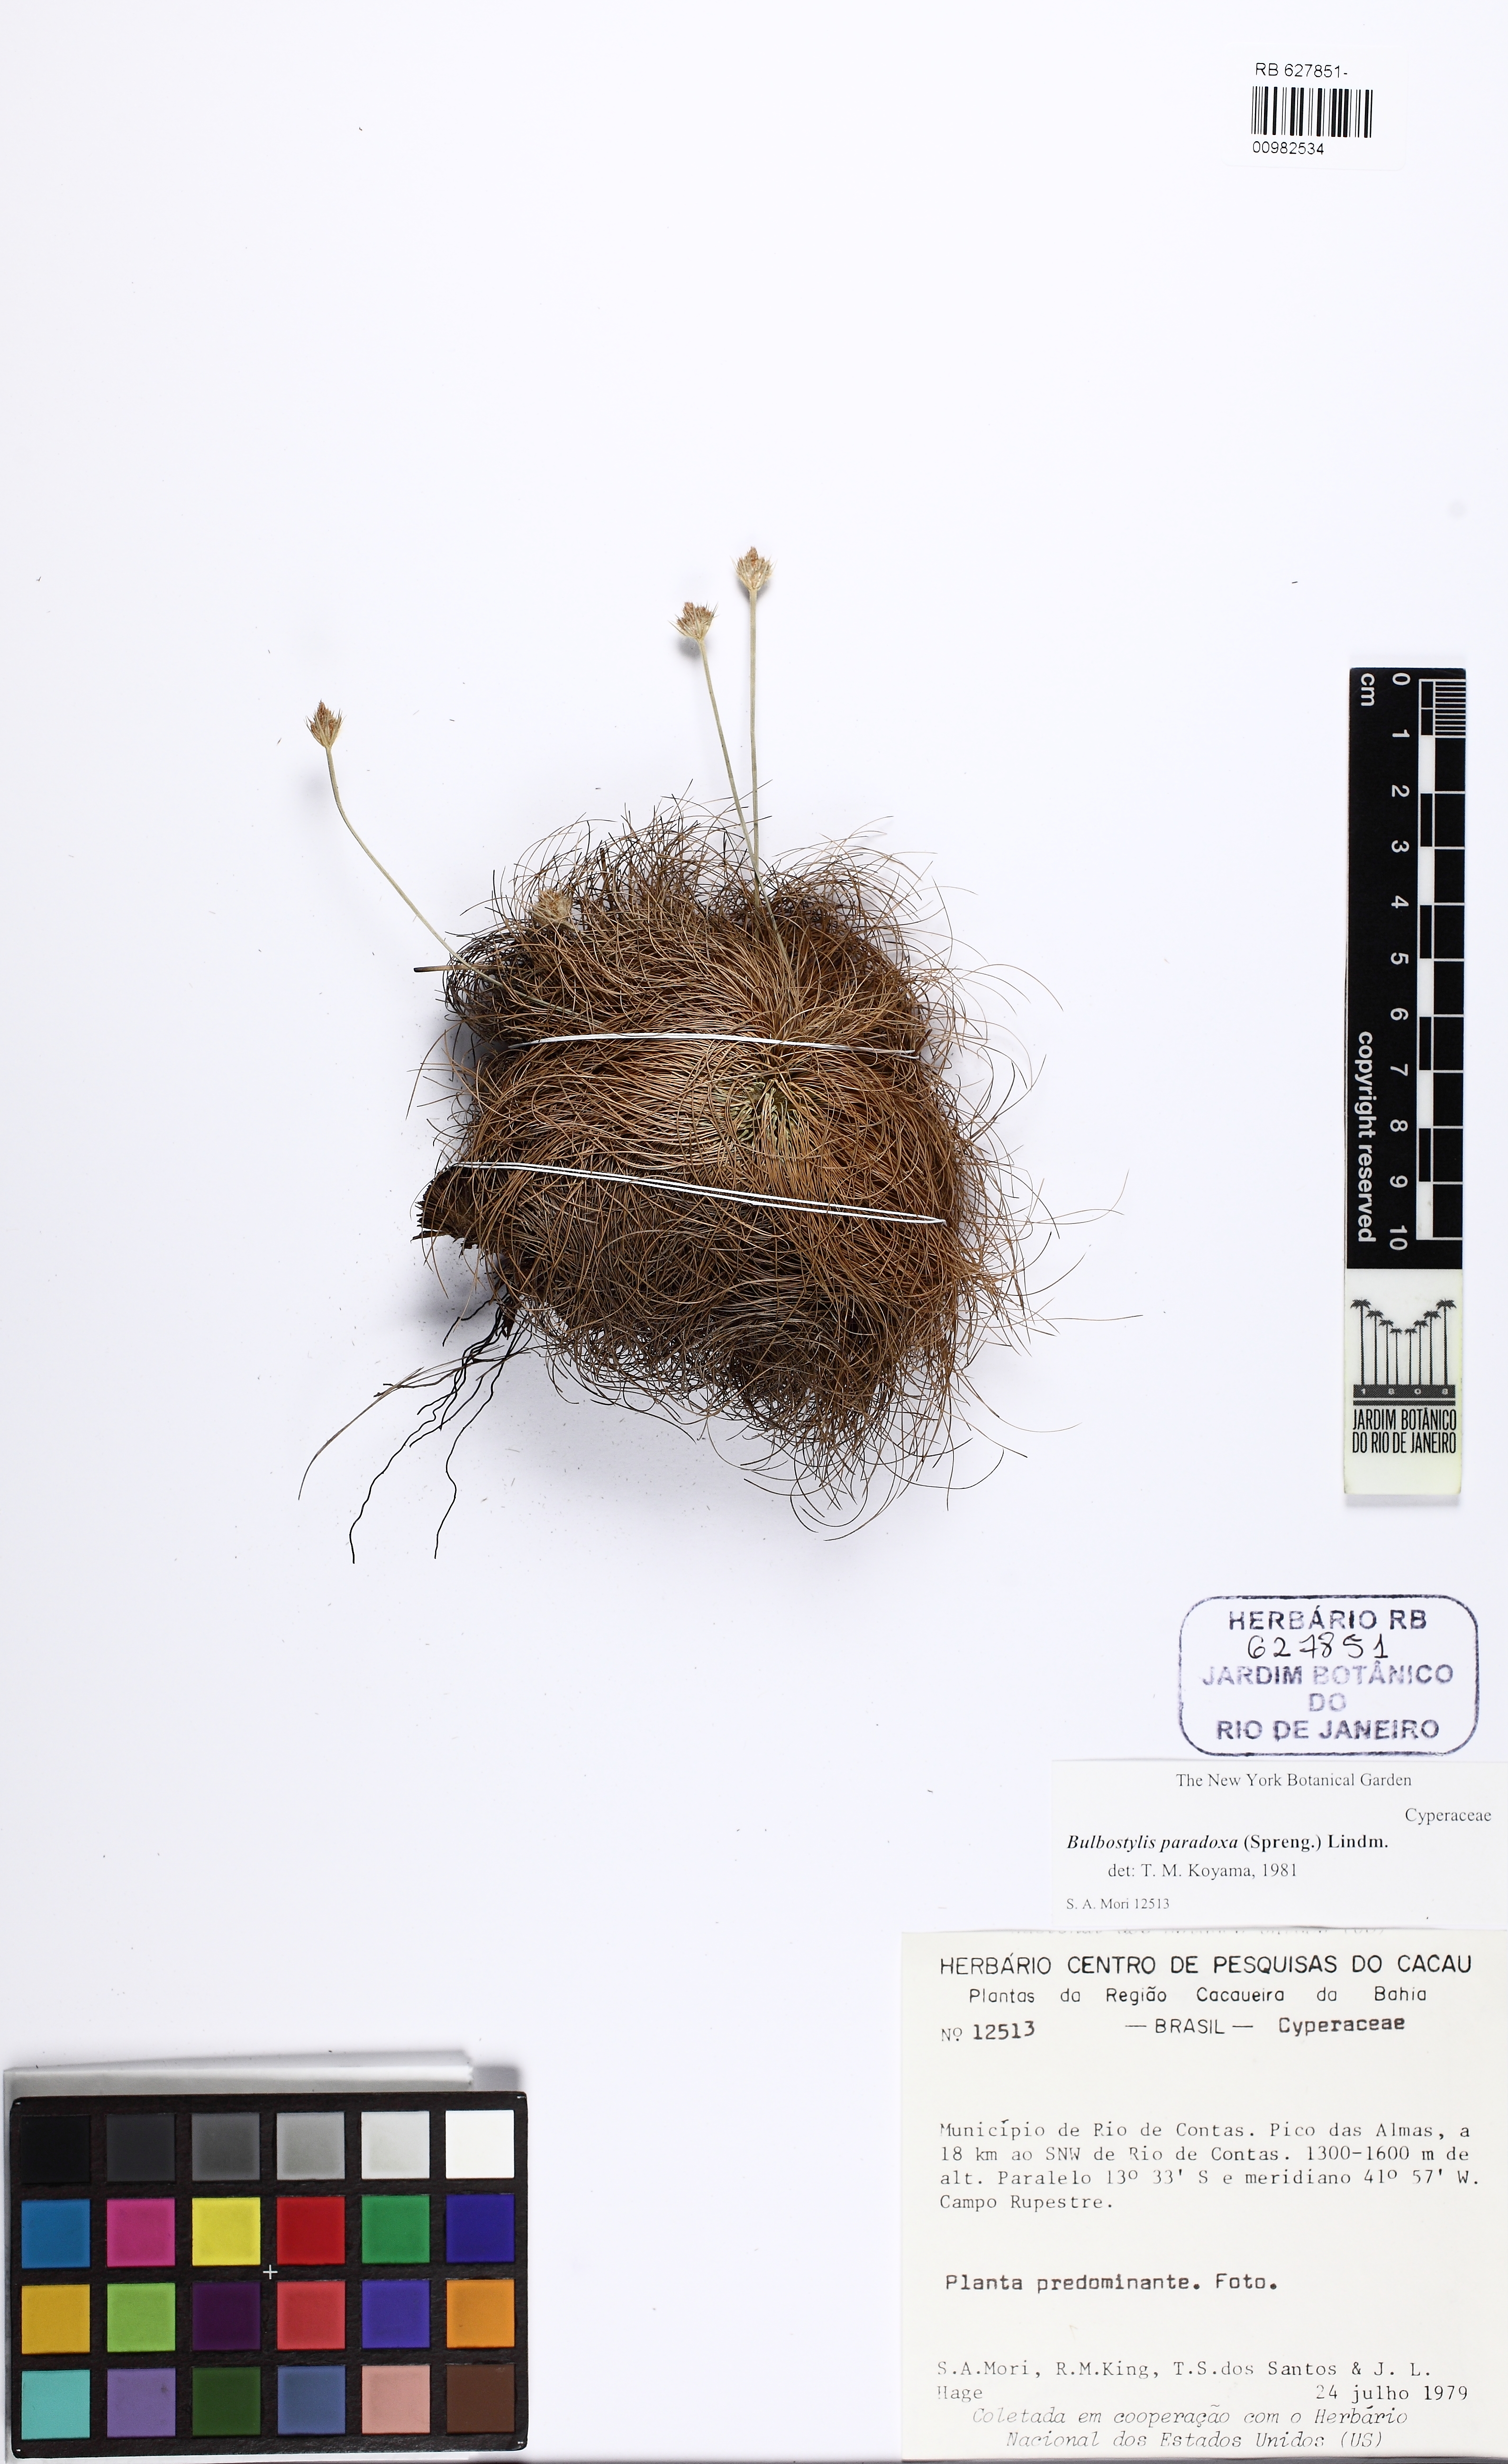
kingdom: Plantae
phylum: Tracheophyta
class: Liliopsida
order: Poales
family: Cyperaceae
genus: Bulbostylis
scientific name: Bulbostylis paradoxa
